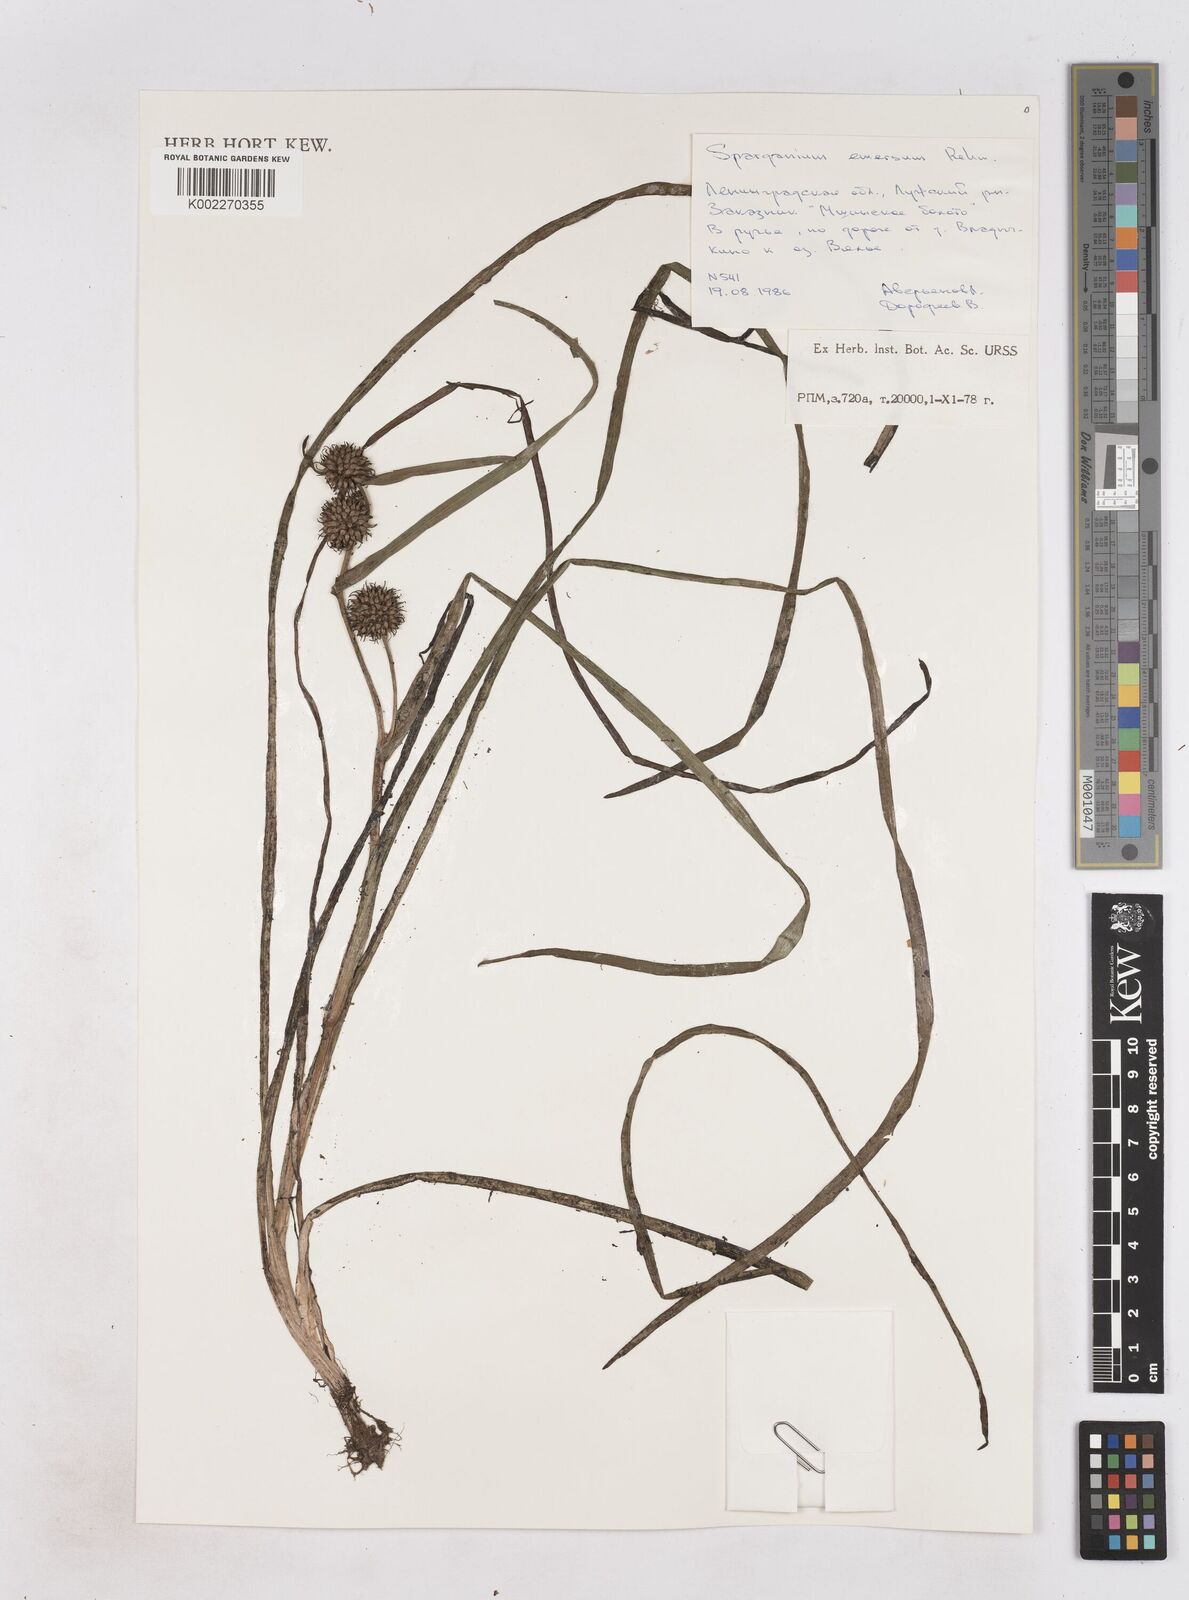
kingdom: Plantae
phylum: Tracheophyta
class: Liliopsida
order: Poales
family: Typhaceae
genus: Sparganium
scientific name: Sparganium emersum
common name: Unbranched bur-reed
